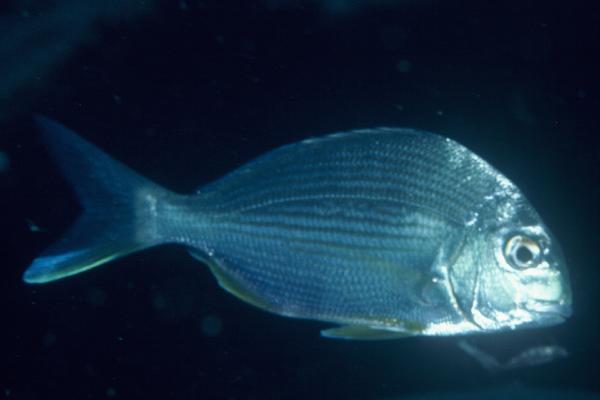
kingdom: Animalia
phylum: Chordata
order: Perciformes
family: Sparidae
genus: Rhabdosargus
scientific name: Rhabdosargus sarba
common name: Goldlined seabream
